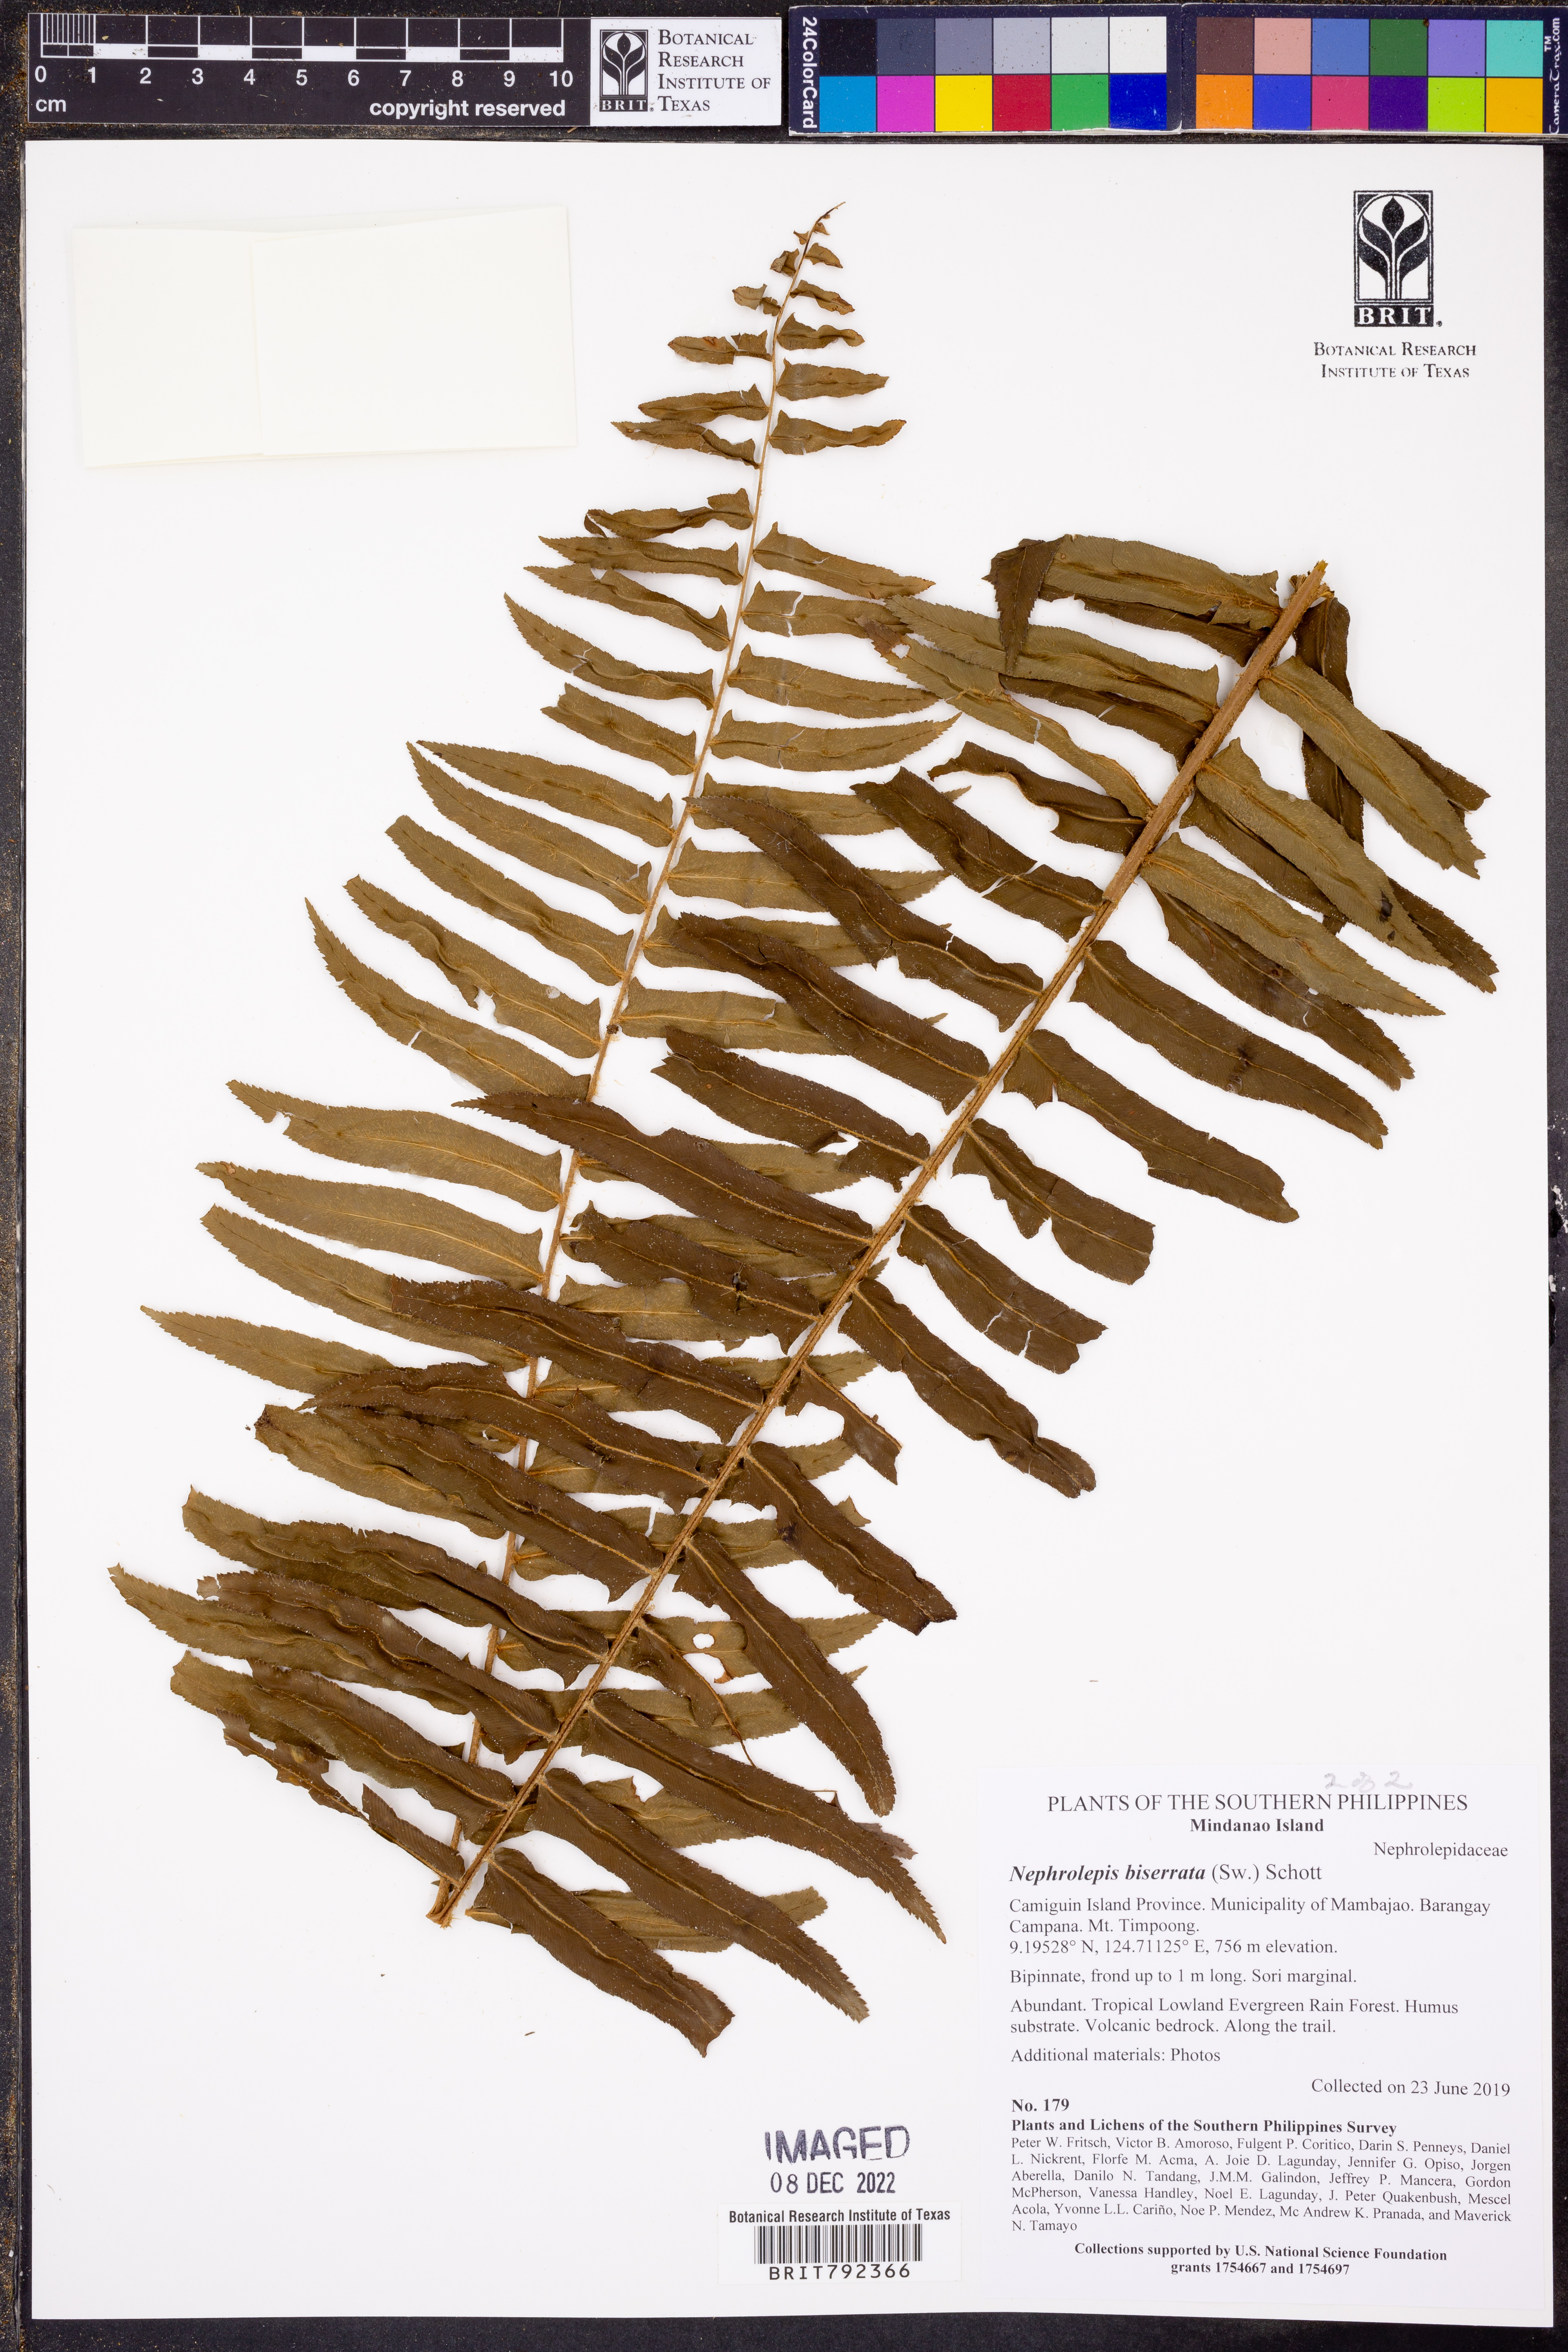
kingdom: Plantae
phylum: Tracheophyta
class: Polypodiopsida
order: Polypodiales
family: Nephrolepidaceae
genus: Nephrolepis
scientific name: Nephrolepis biserrata
